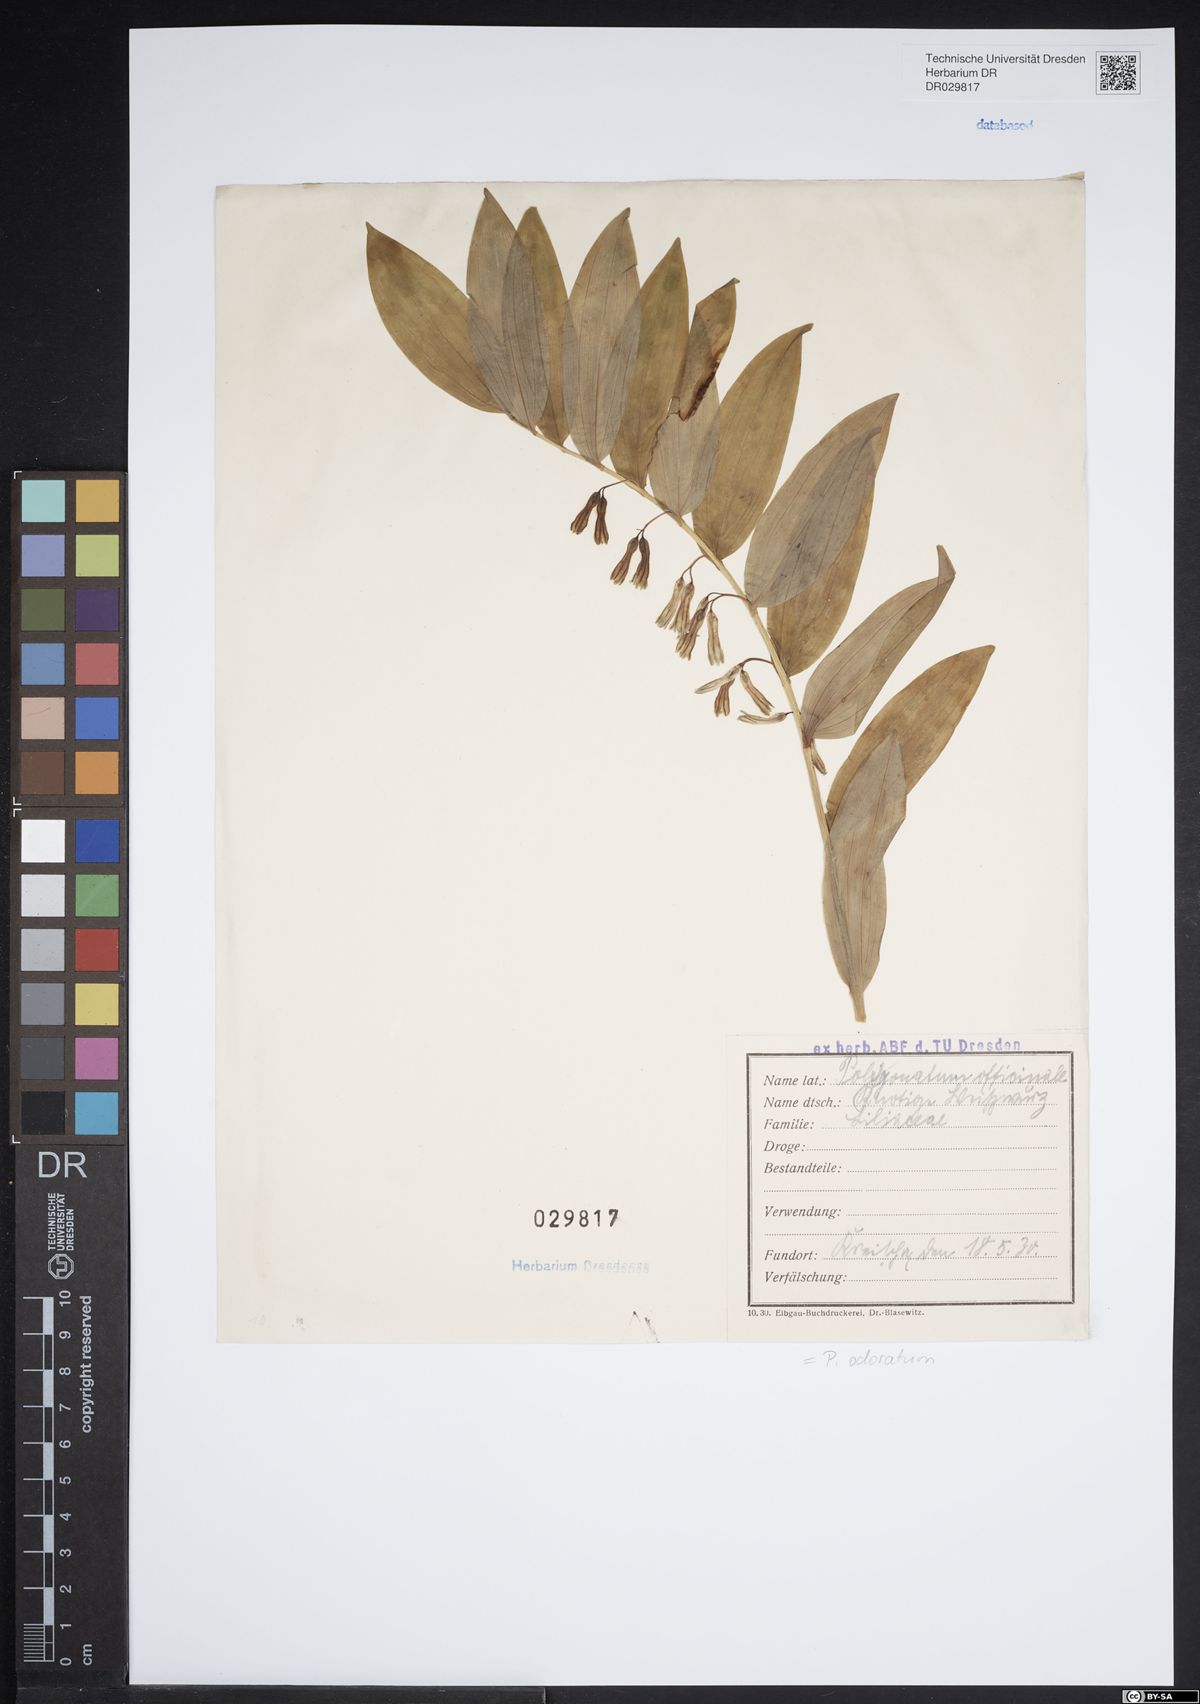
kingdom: Plantae
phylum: Tracheophyta
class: Liliopsida
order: Asparagales
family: Asparagaceae
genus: Polygonatum
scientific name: Polygonatum odoratum
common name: Angular solomon's-seal
